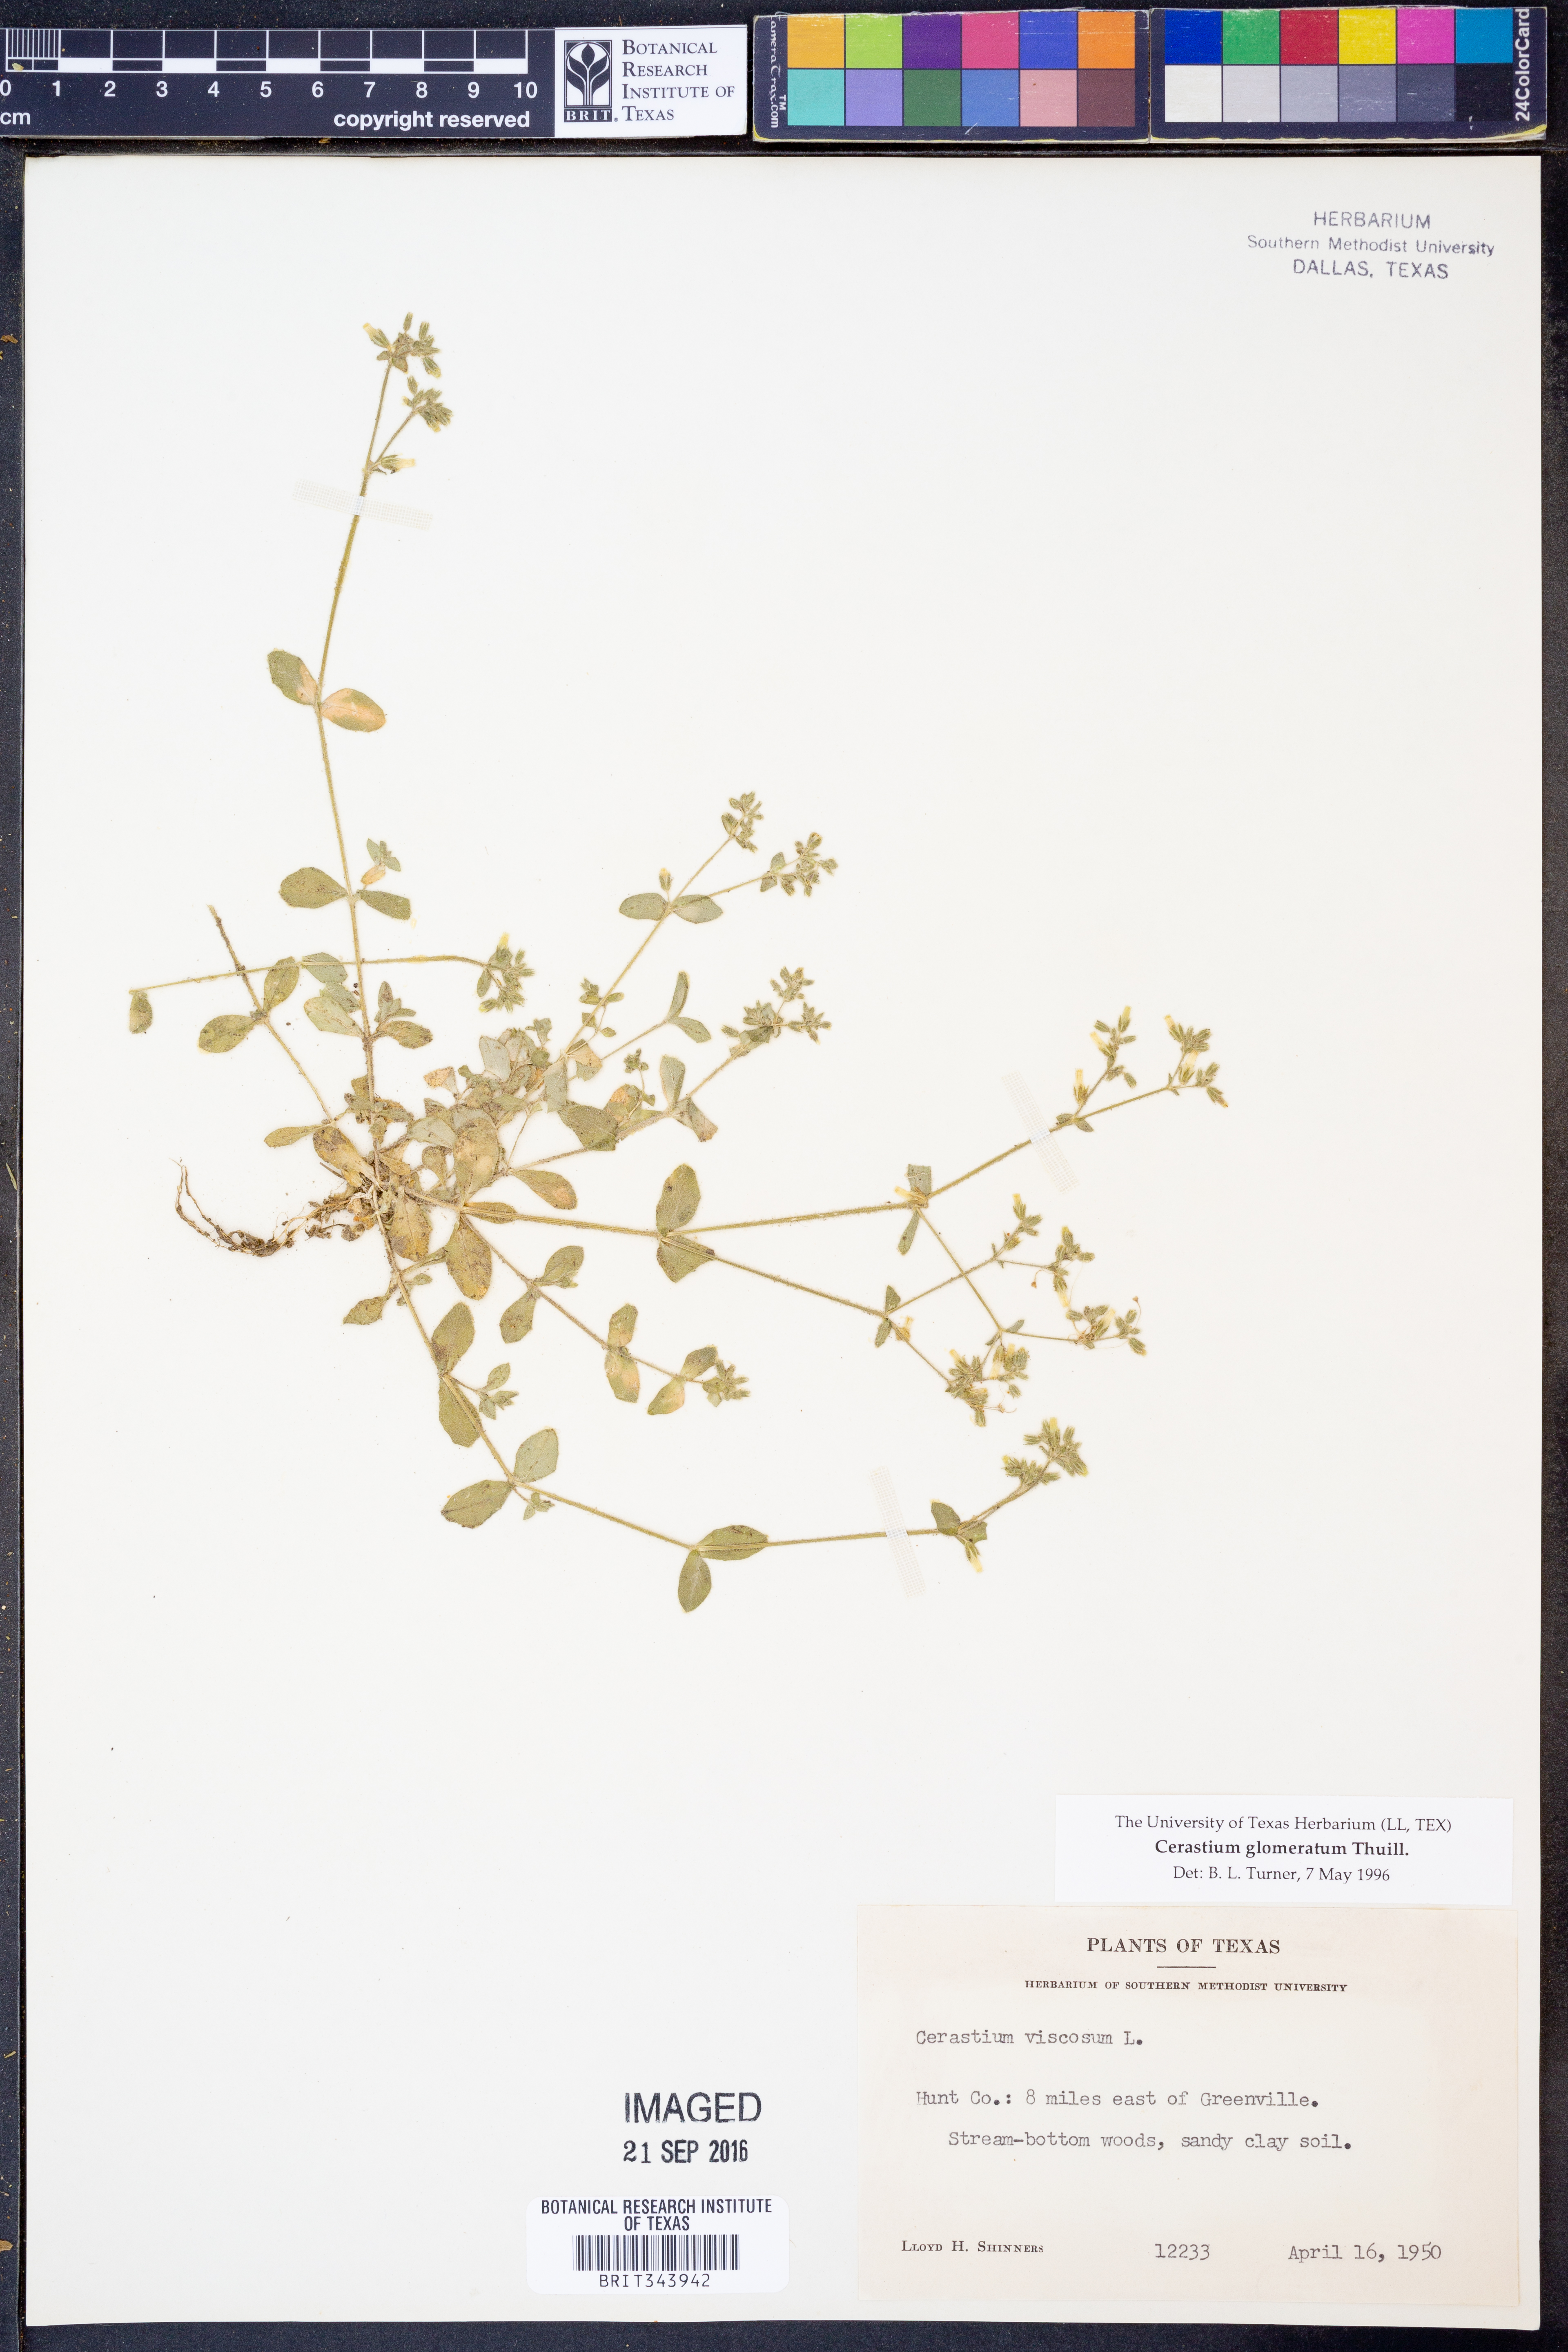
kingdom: Plantae
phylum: Tracheophyta
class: Magnoliopsida
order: Caryophyllales
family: Caryophyllaceae
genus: Cerastium
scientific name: Cerastium glomeratum
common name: Sticky chickweed
